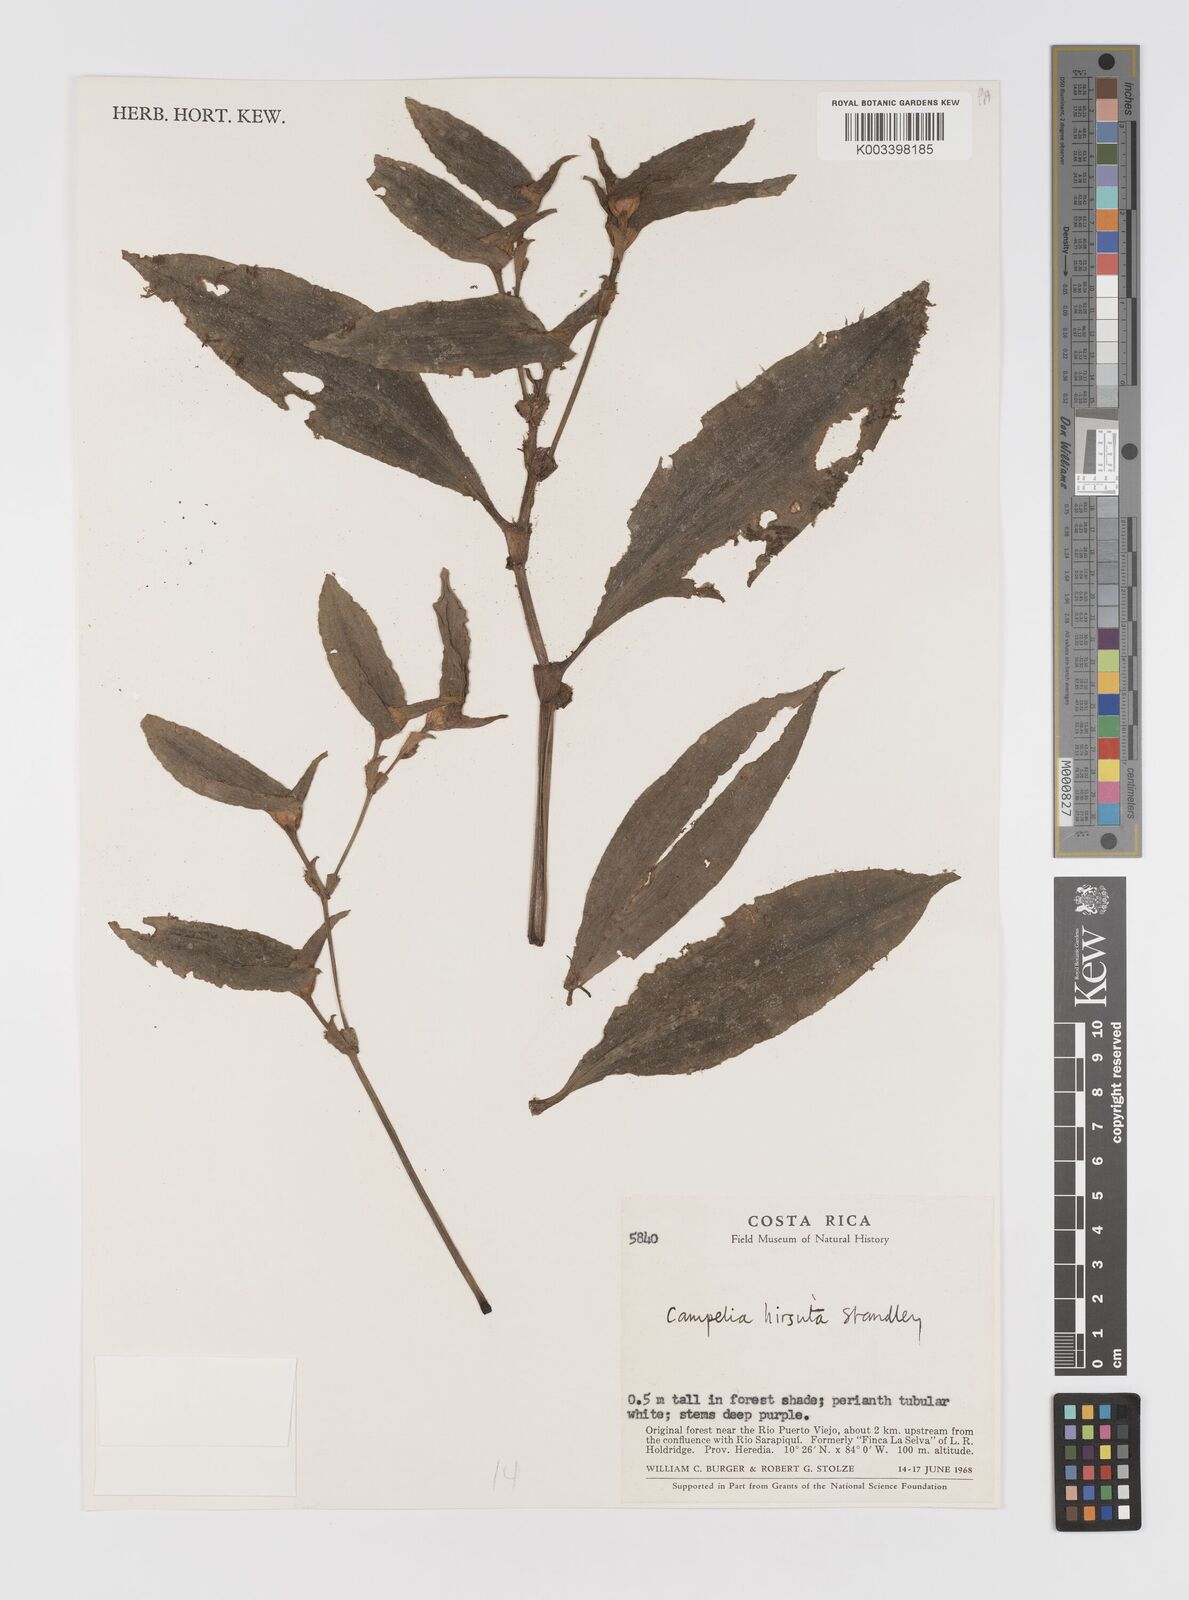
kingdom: Plantae
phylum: Tracheophyta
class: Liliopsida
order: Commelinales
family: Commelinaceae
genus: Tradescantia
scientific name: Tradescantia schippii
